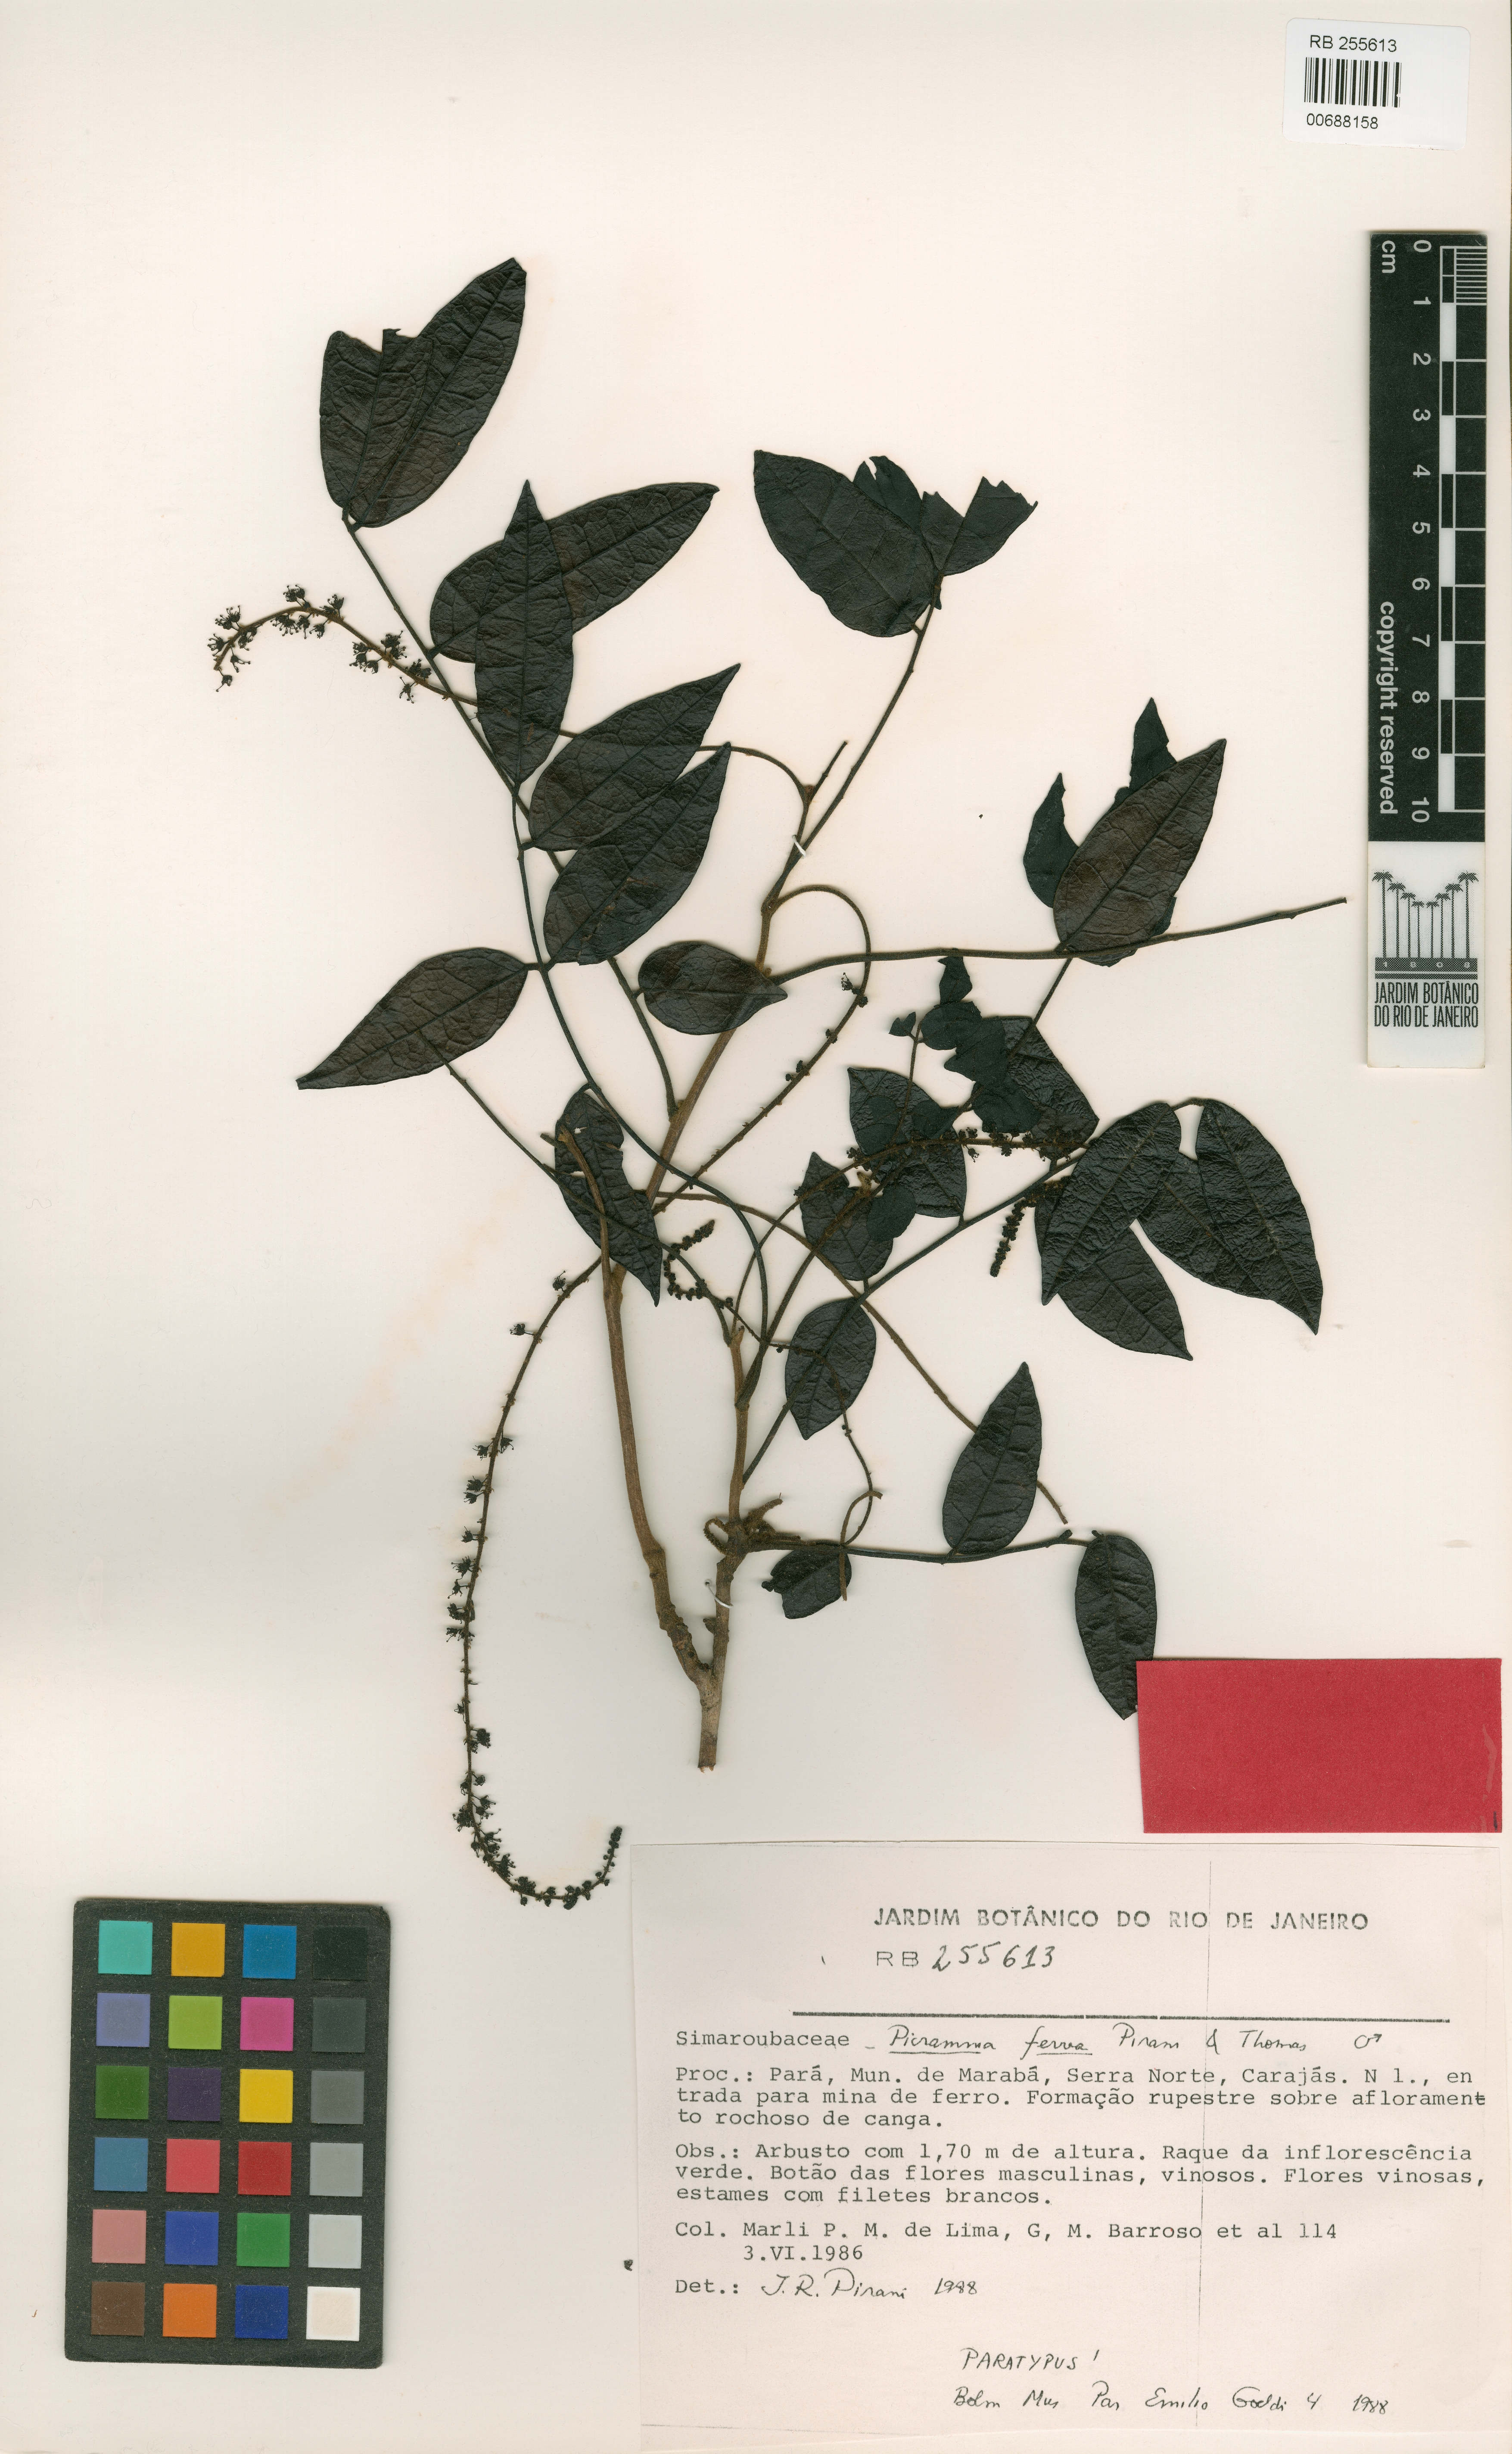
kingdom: Plantae
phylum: Tracheophyta
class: Magnoliopsida
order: Picramniales
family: Picramniaceae
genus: Picramnia
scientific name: Picramnia ferrea
